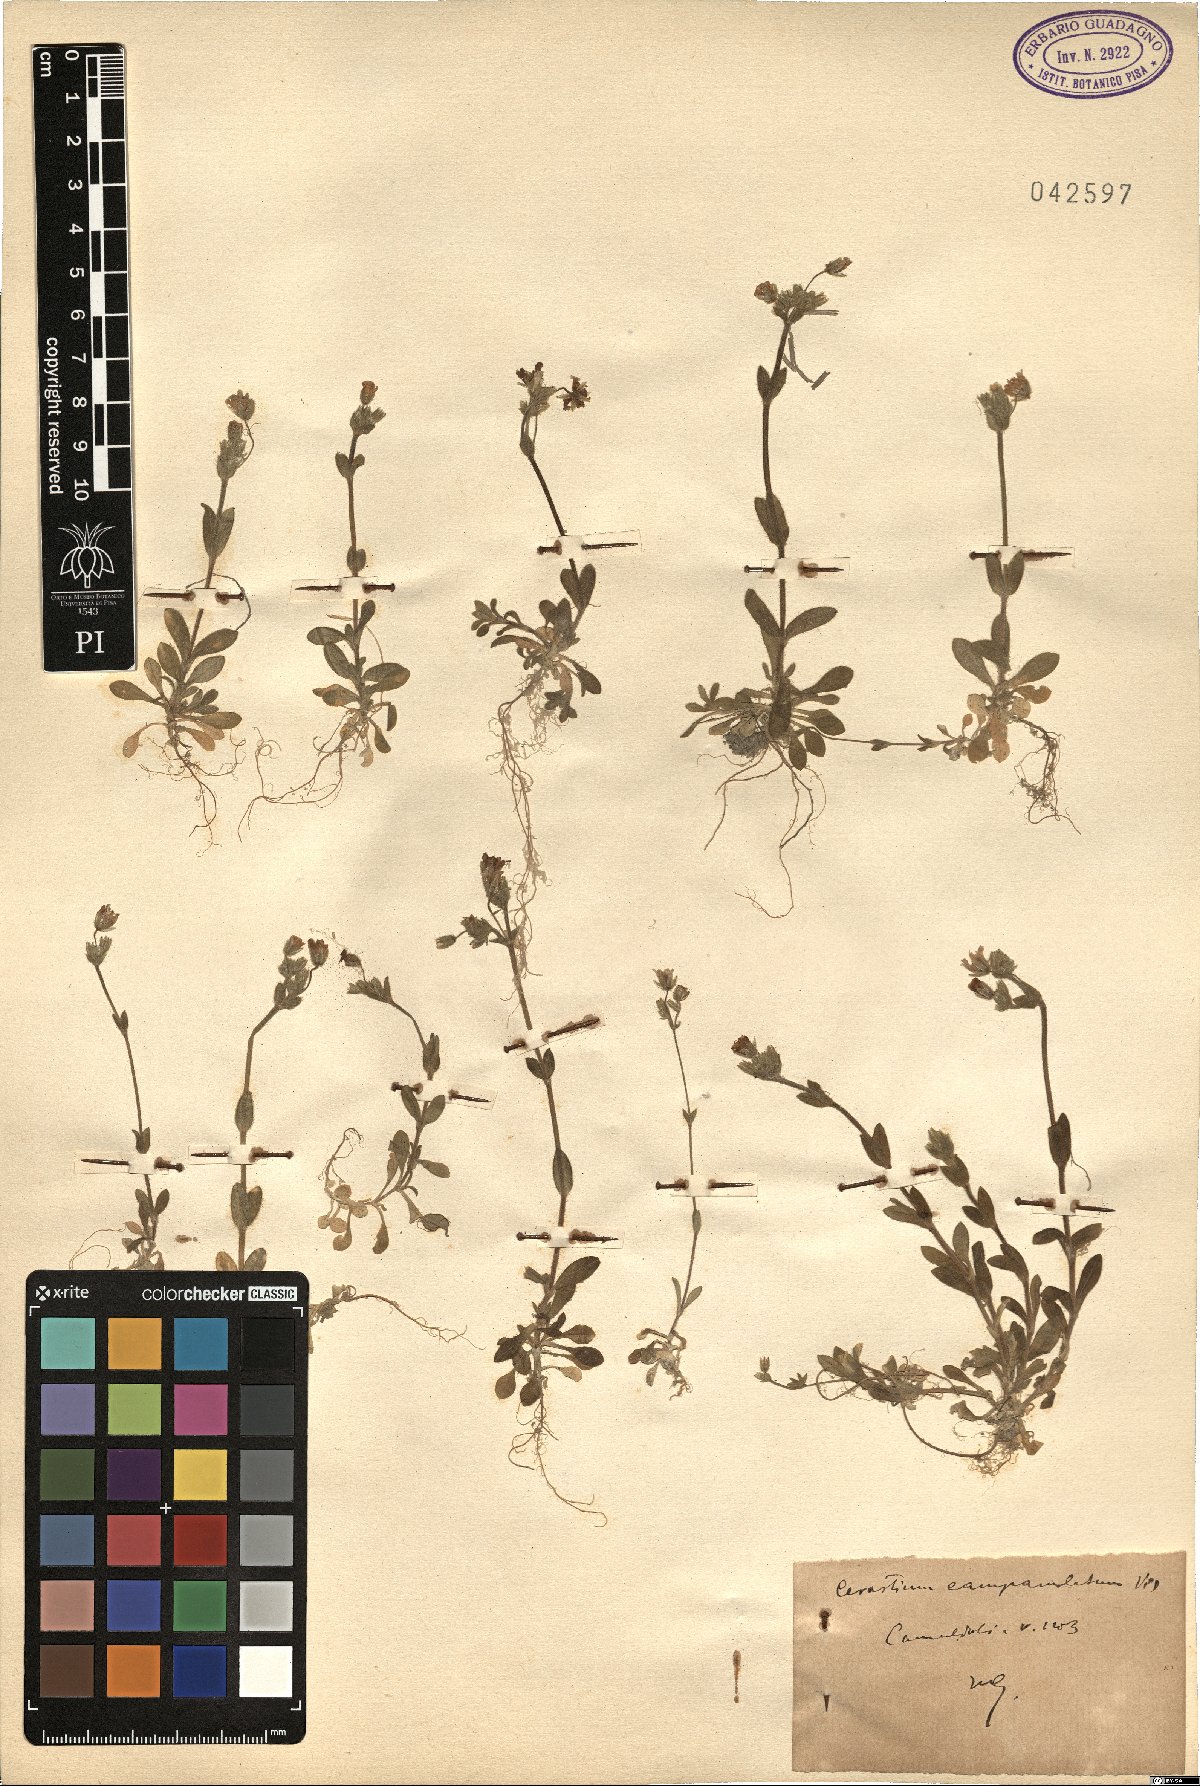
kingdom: Plantae
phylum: Tracheophyta
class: Magnoliopsida
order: Caryophyllales
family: Caryophyllaceae
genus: Cerastium
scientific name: Cerastium ligusticum
